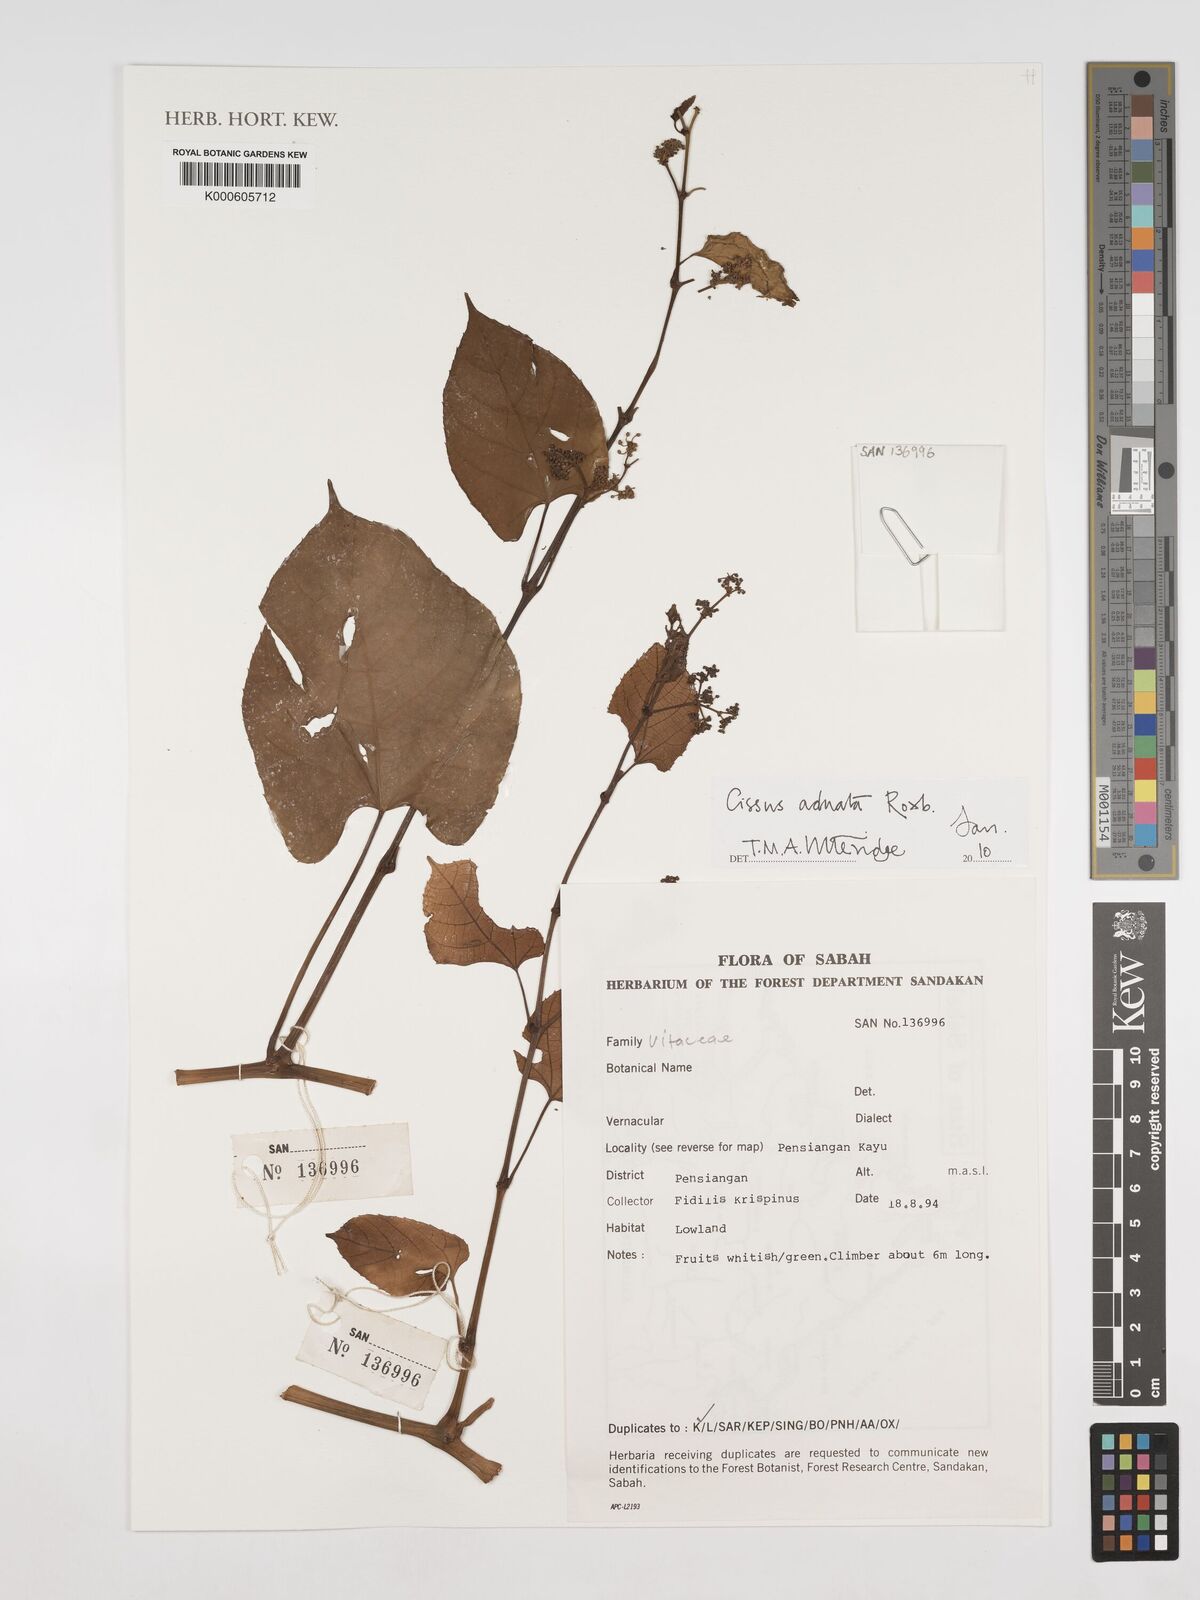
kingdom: Plantae
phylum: Tracheophyta
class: Magnoliopsida
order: Vitales
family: Vitaceae
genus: Cissus
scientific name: Cissus adnata
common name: Heart-leaf-grape
